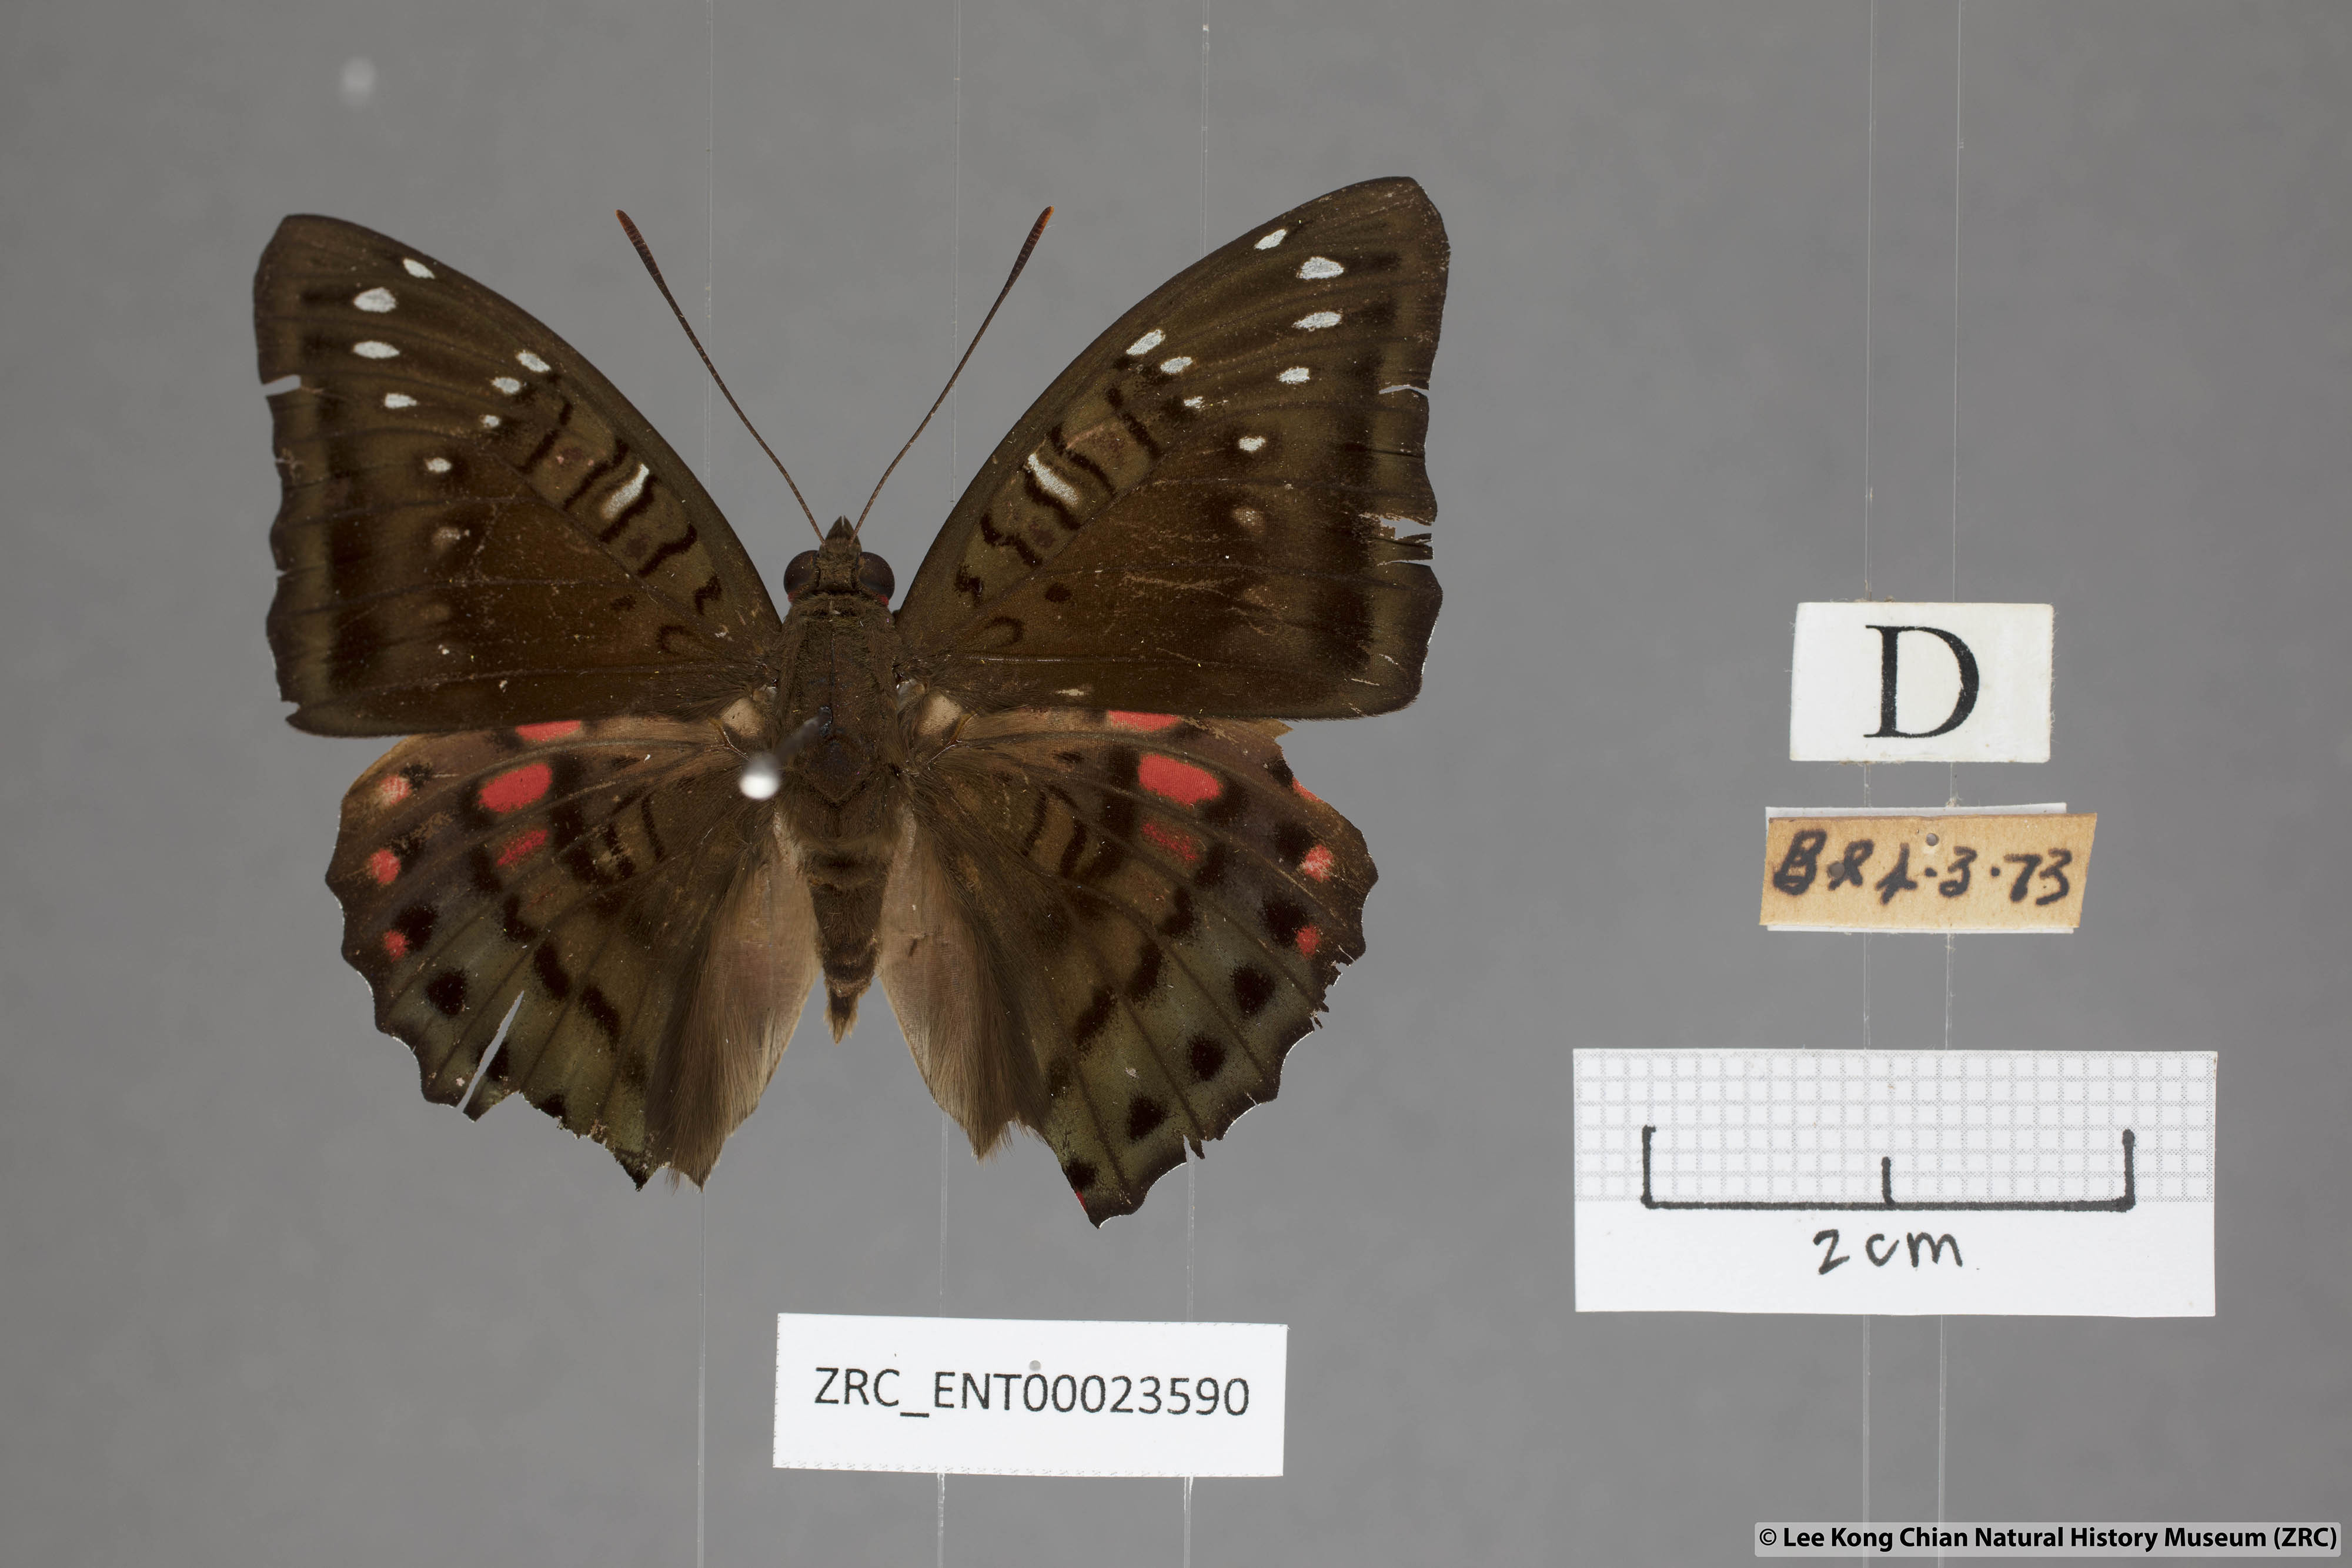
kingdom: Animalia
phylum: Arthropoda
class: Insecta
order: Lepidoptera
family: Nymphalidae
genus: Euthalia
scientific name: Euthalia adonia
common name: Green baron
